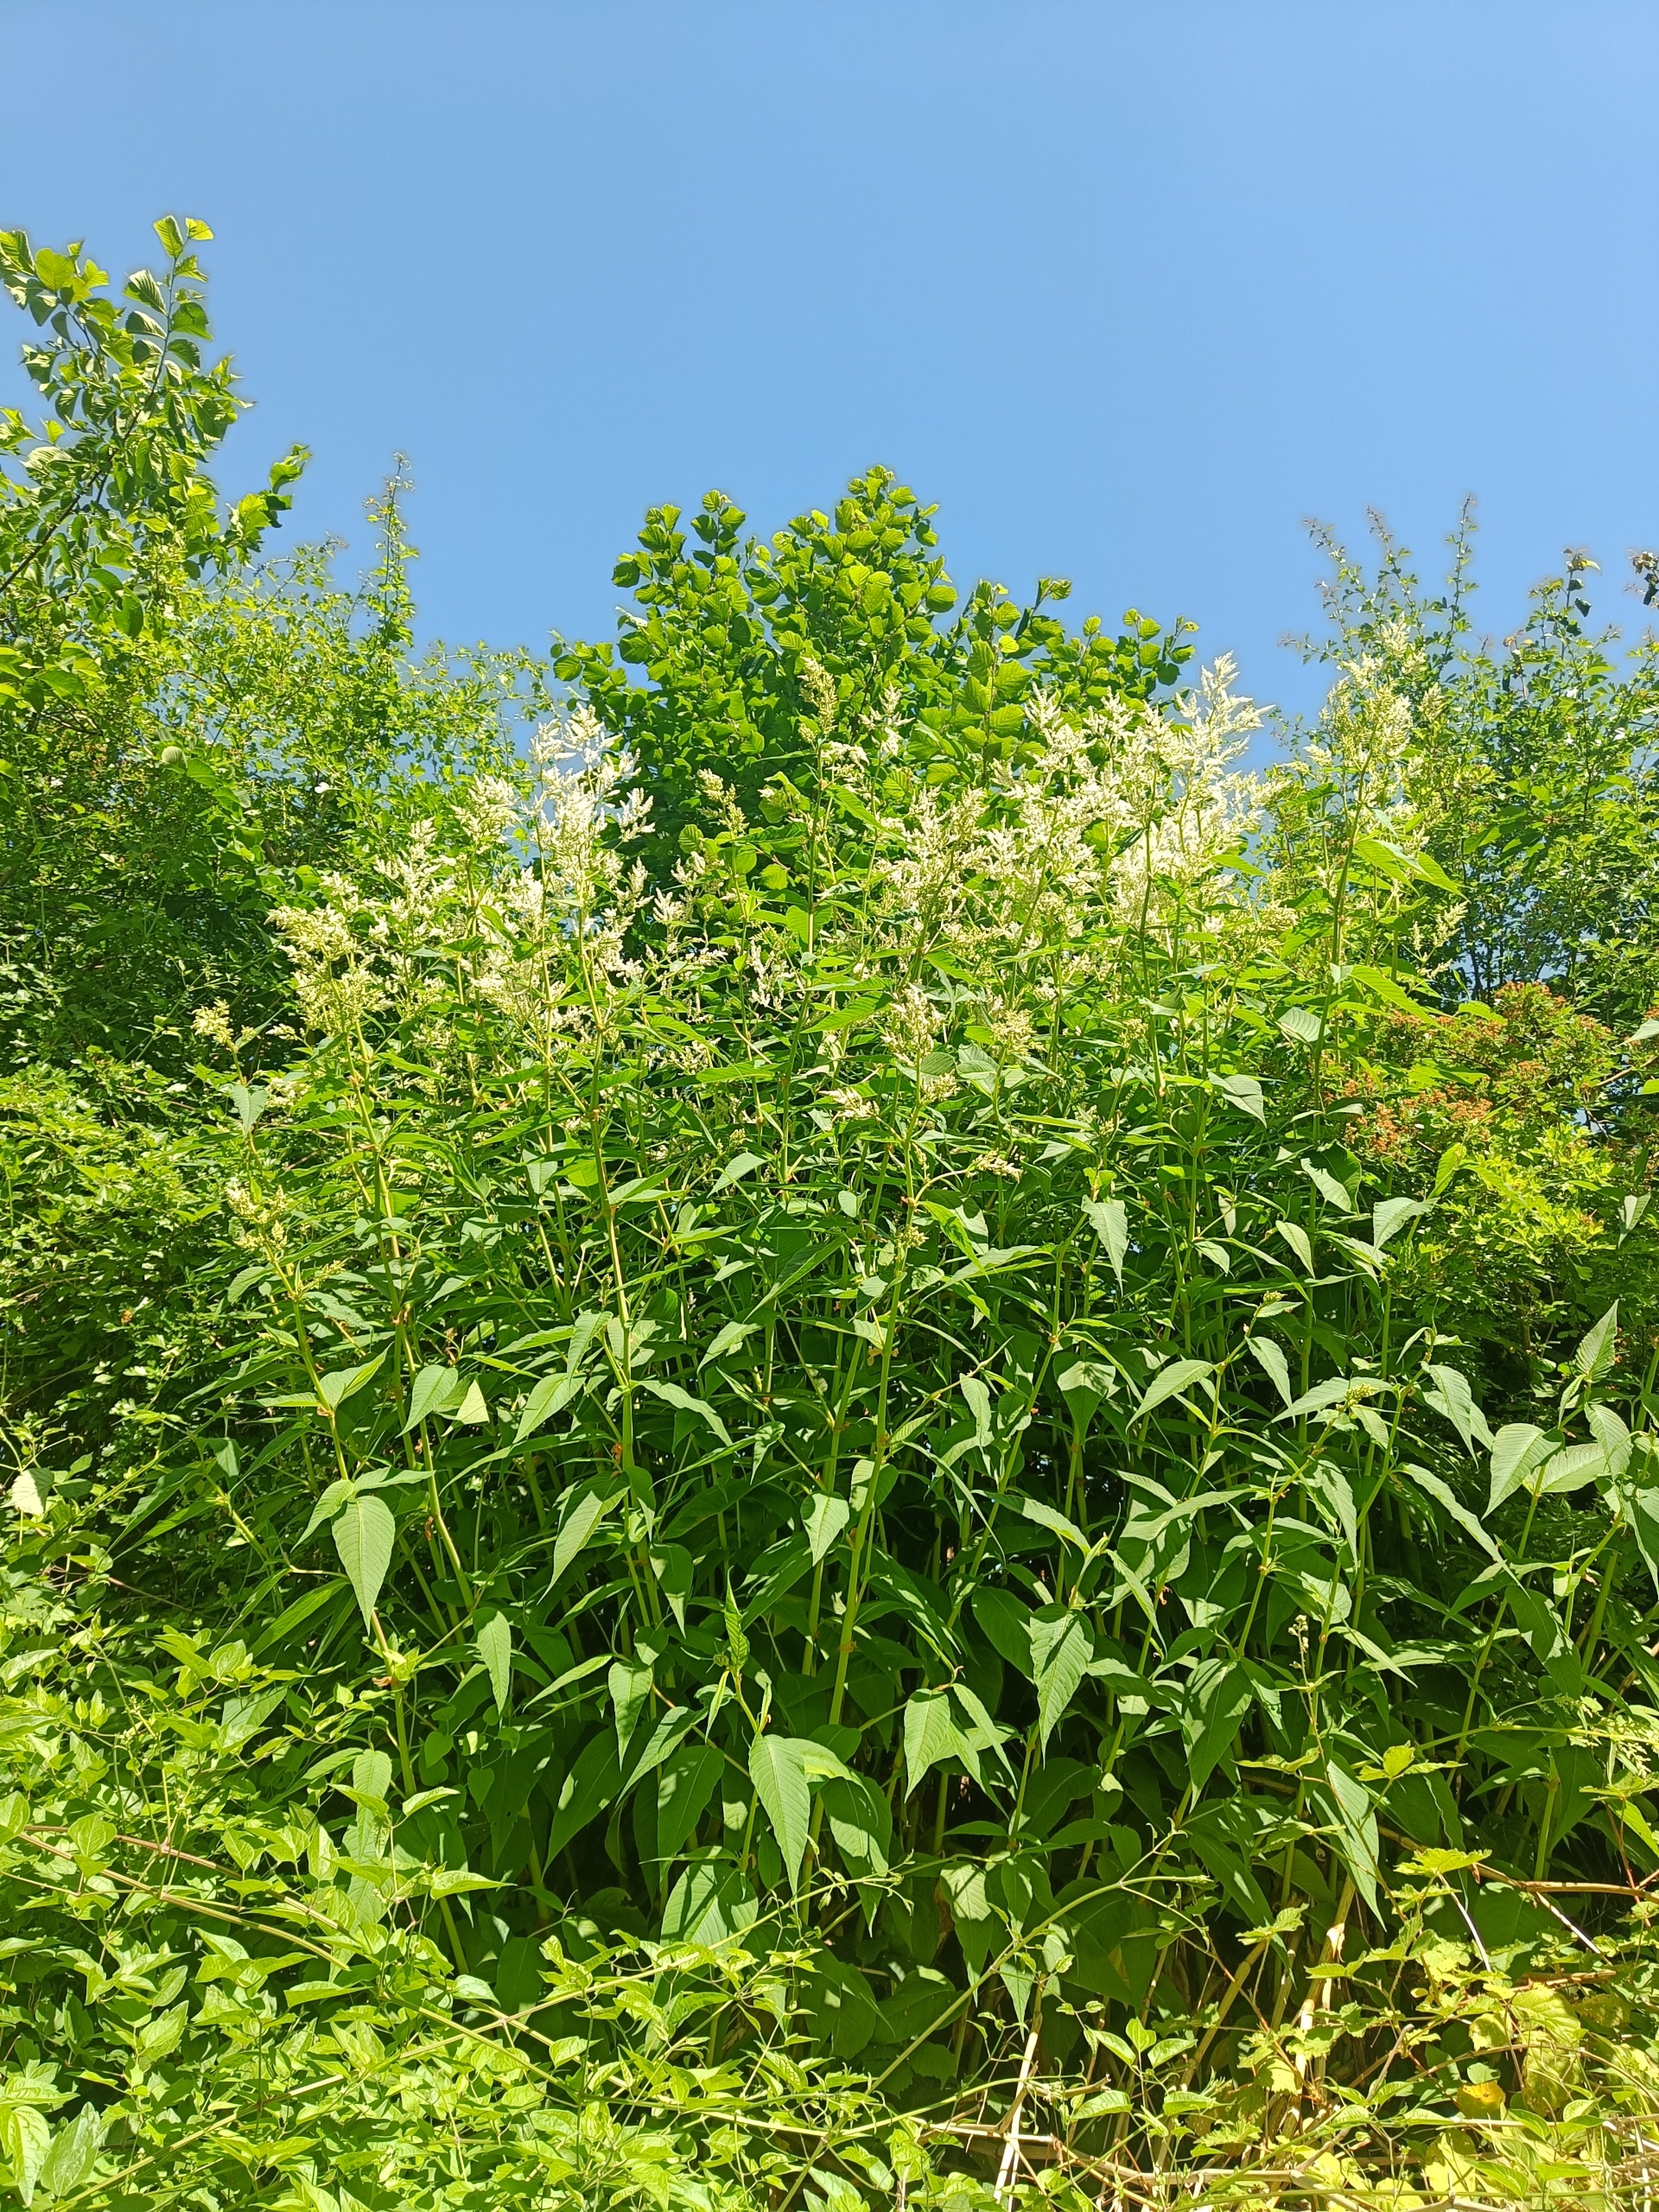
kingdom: Plantae
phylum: Tracheophyta
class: Magnoliopsida
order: Caryophyllales
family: Polygonaceae
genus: Koenigia
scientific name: Koenigia fennica
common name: Finsk pileurt
